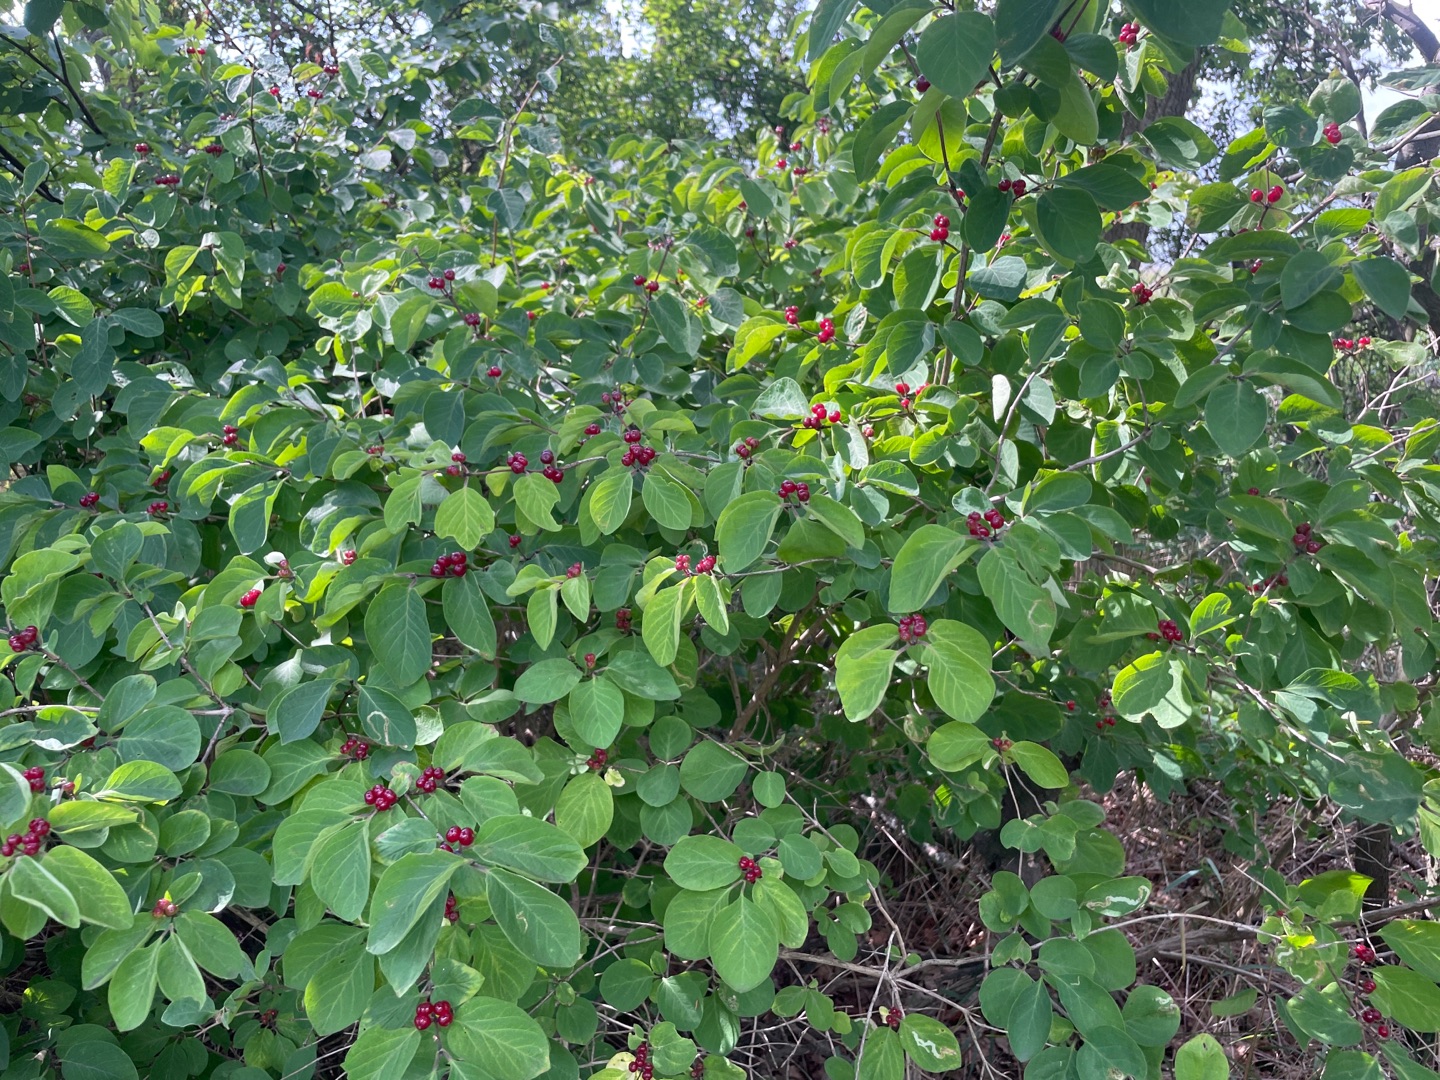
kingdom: Plantae
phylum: Tracheophyta
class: Magnoliopsida
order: Dipsacales
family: Caprifoliaceae
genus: Lonicera
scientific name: Lonicera xylosteum
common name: Dunet gedeblad
